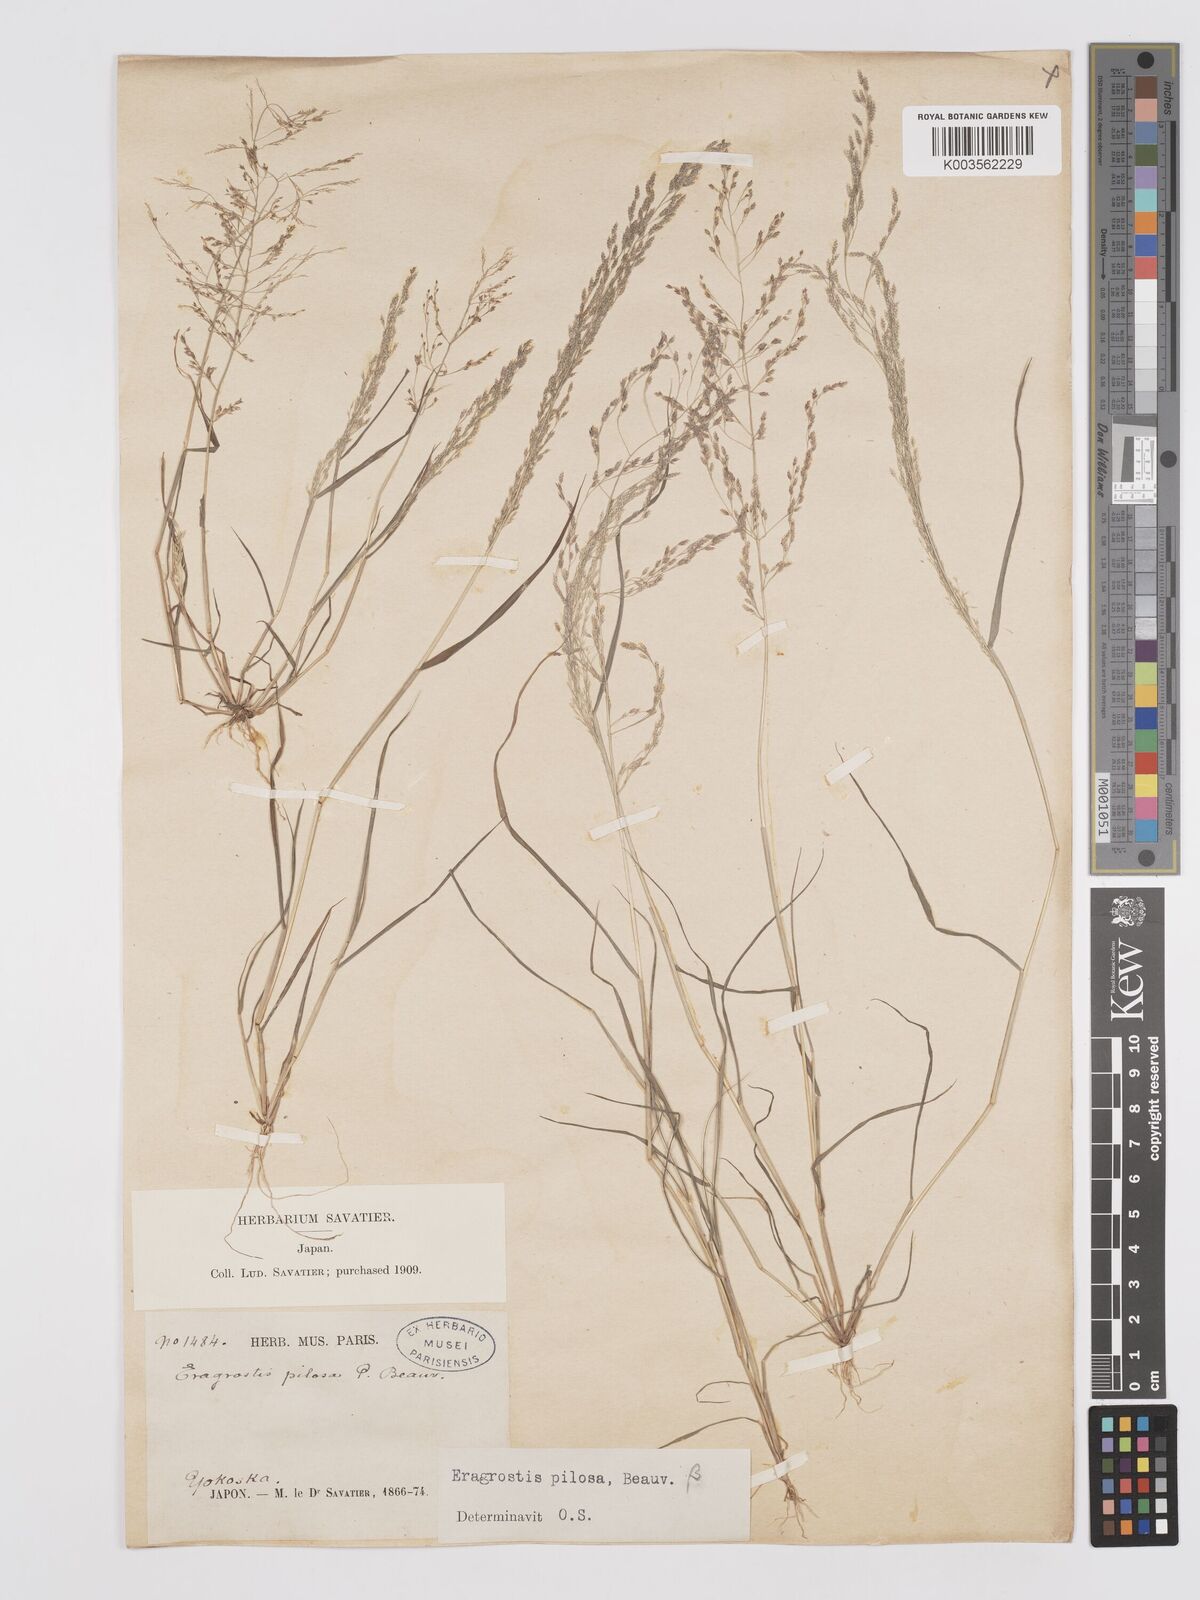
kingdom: Plantae
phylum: Tracheophyta
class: Liliopsida
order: Poales
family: Poaceae
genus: Eragrostis
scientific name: Eragrostis pilosa
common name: Indian lovegrass
